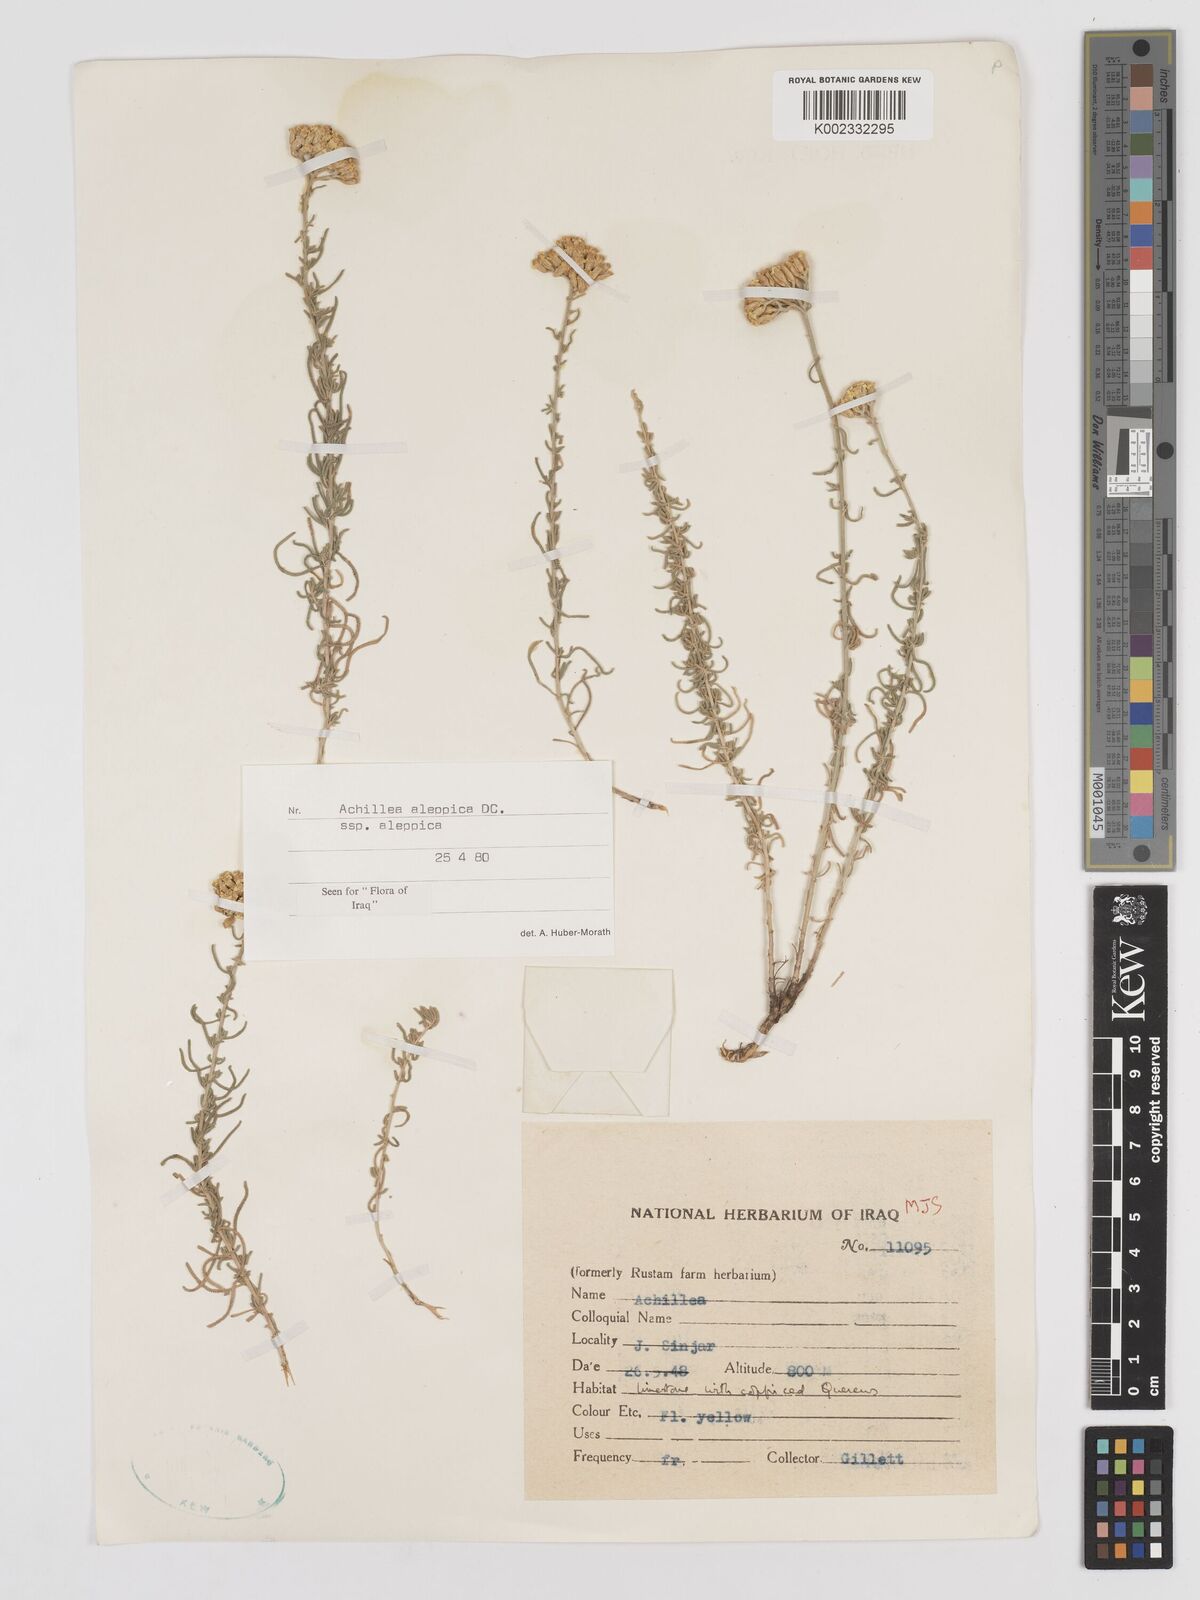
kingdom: Plantae
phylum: Tracheophyta
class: Magnoliopsida
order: Asterales
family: Asteraceae
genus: Achillea
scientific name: Achillea aleppica
